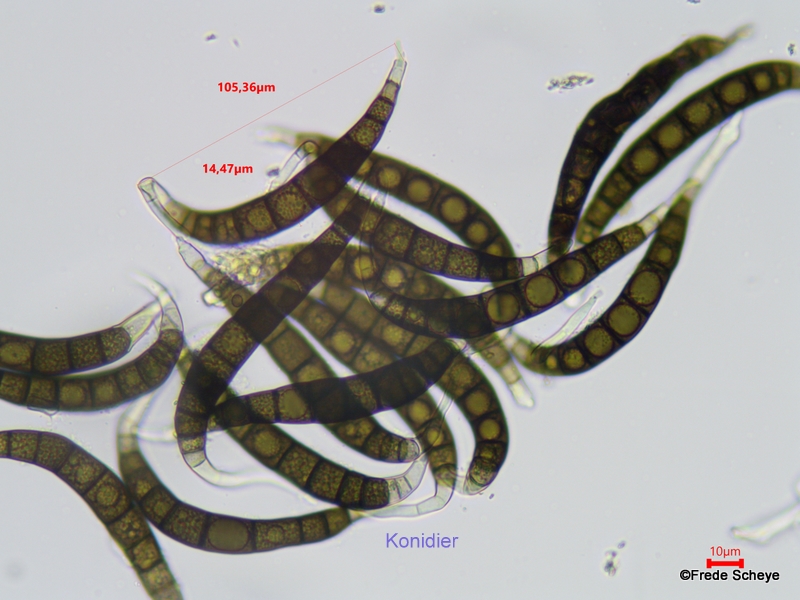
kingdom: Fungi
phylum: Ascomycota
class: Dothideomycetes
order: Pleosporales
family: Pleomassariaceae
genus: Asteromassaria
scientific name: Asteromassaria macrospora
